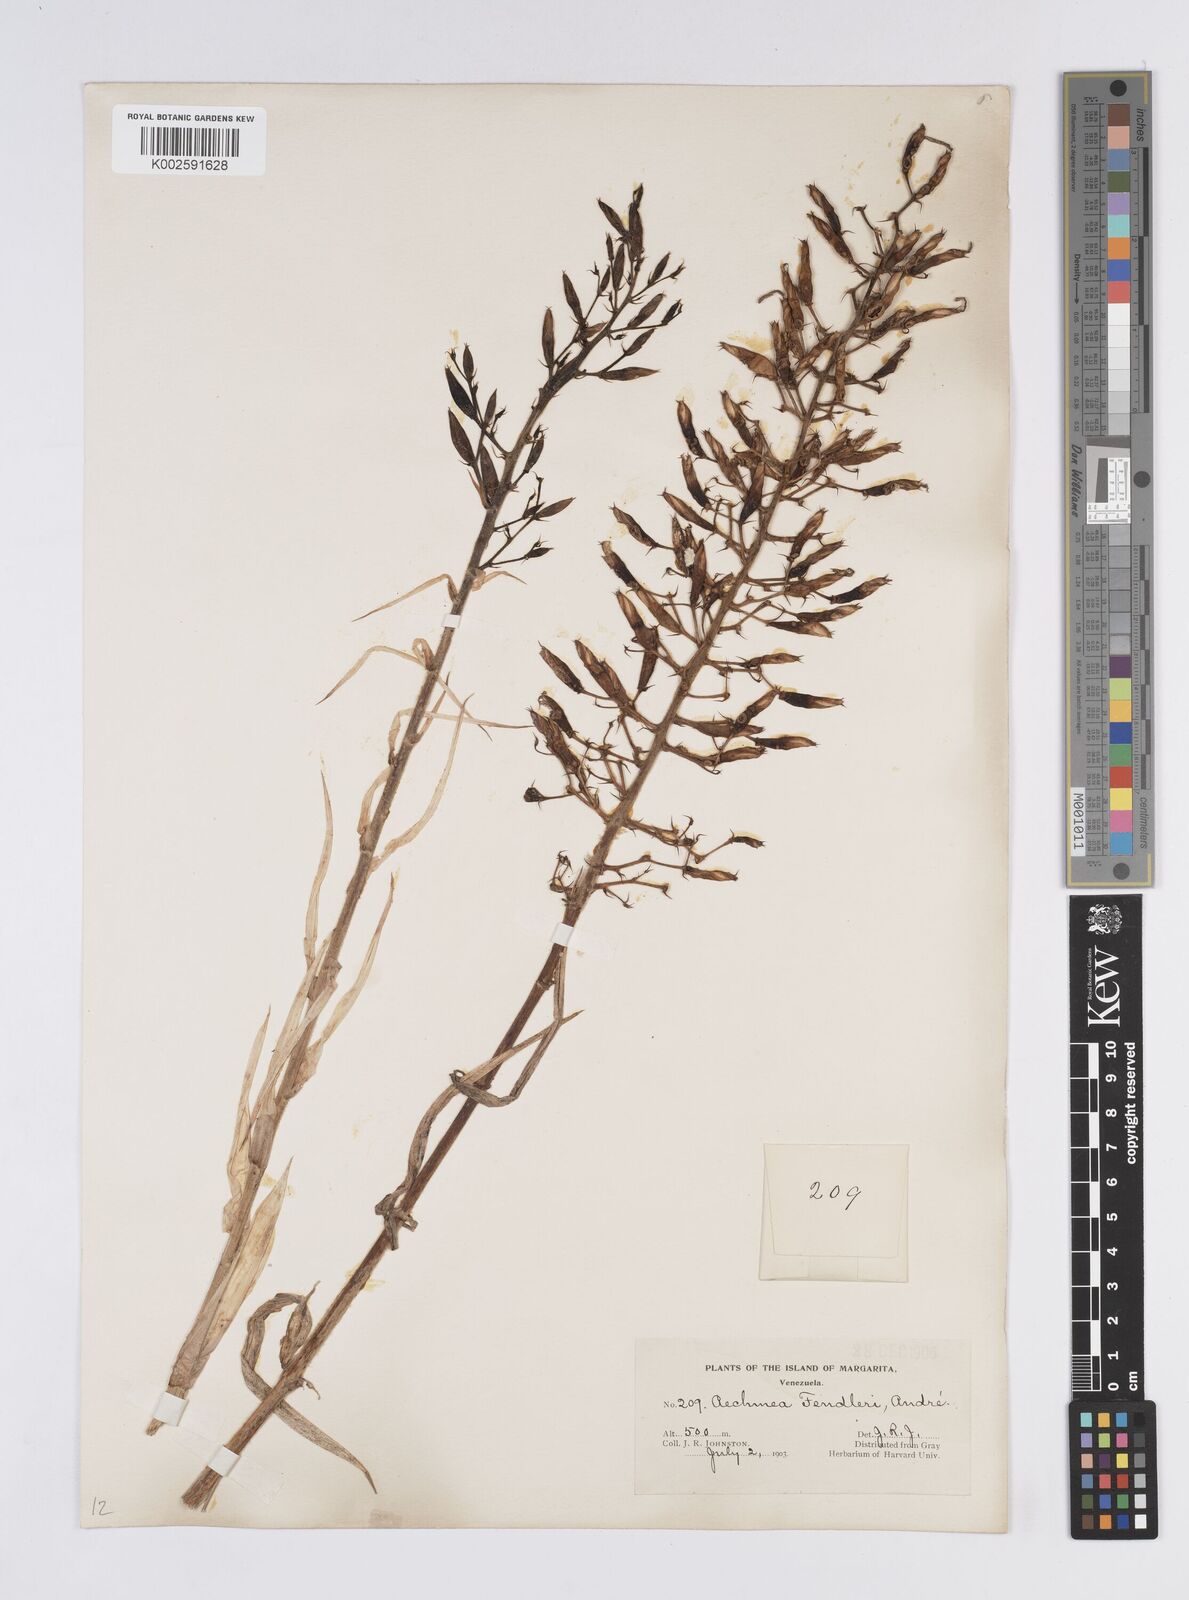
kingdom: Plantae
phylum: Tracheophyta
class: Liliopsida
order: Poales
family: Bromeliaceae
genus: Aechmea
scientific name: Aechmea fendleri
